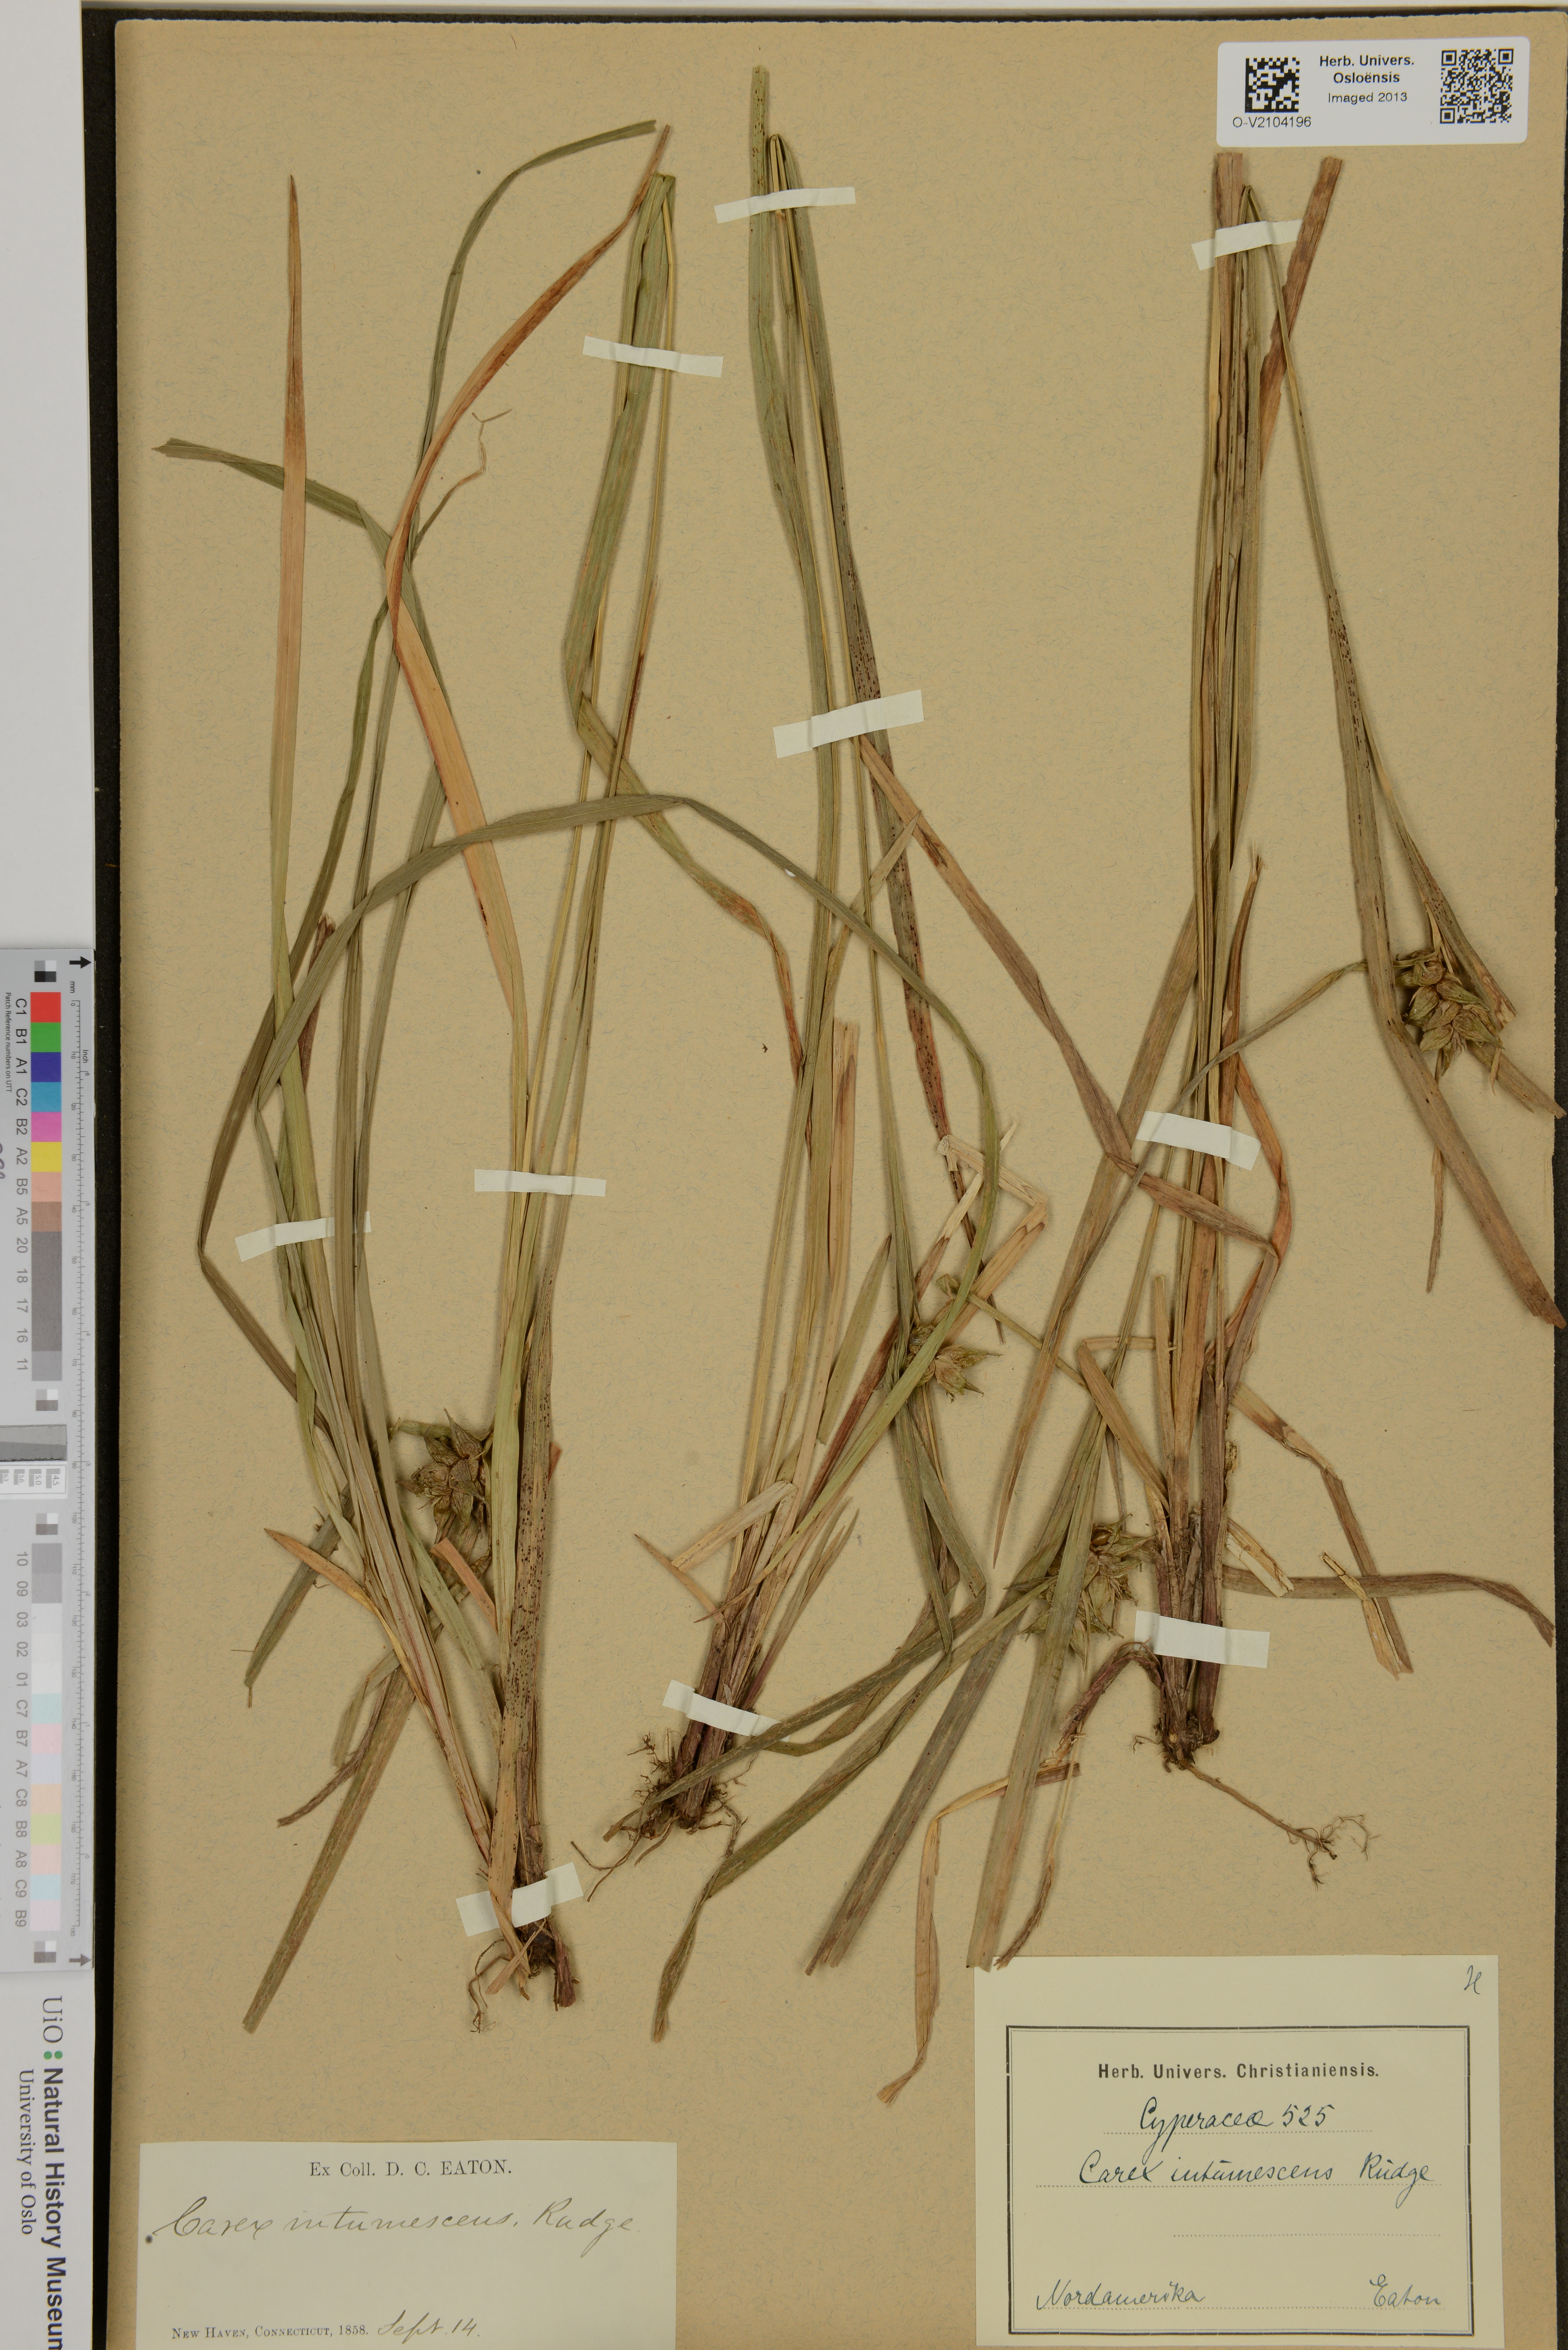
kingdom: Plantae
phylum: Tracheophyta
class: Liliopsida
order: Poales
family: Cyperaceae
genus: Carex
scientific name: Carex intumescens
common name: Greater bladder sedge
